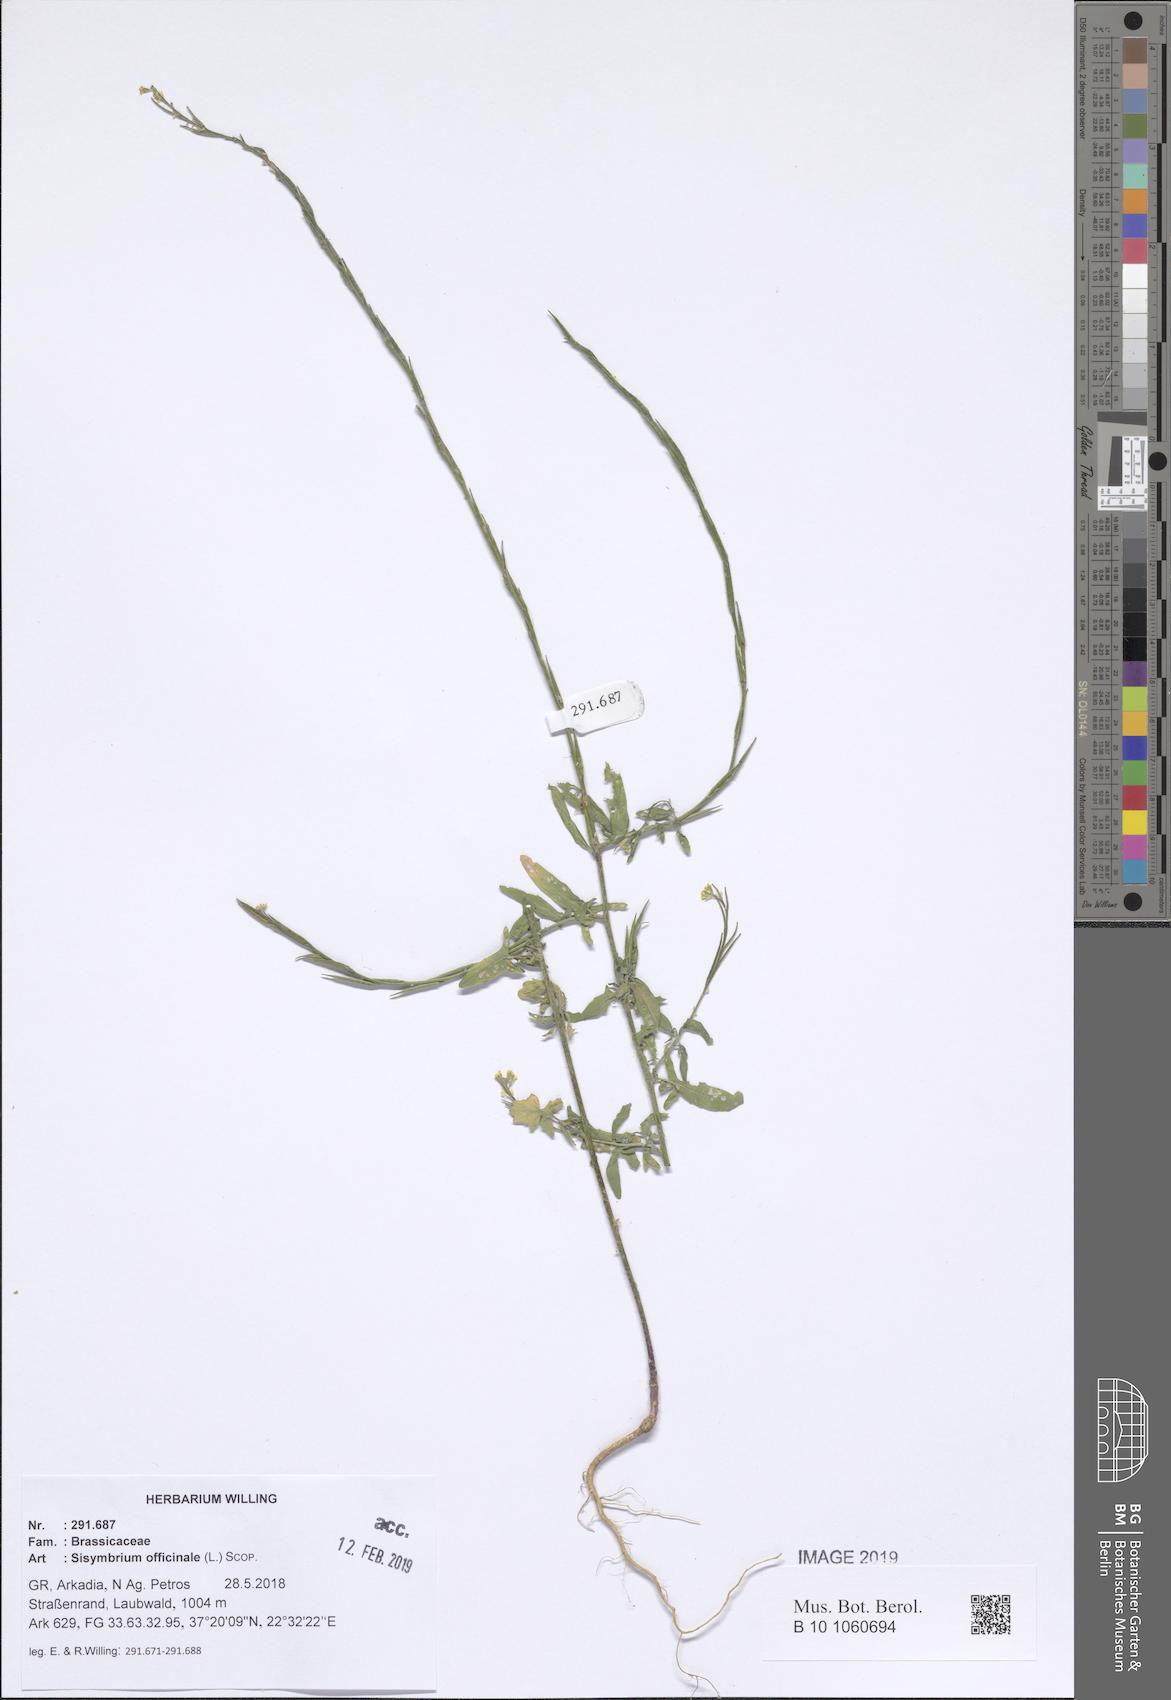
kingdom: Plantae
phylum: Tracheophyta
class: Magnoliopsida
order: Brassicales
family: Brassicaceae
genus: Sisymbrium
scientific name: Sisymbrium officinale
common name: Hedge mustard
